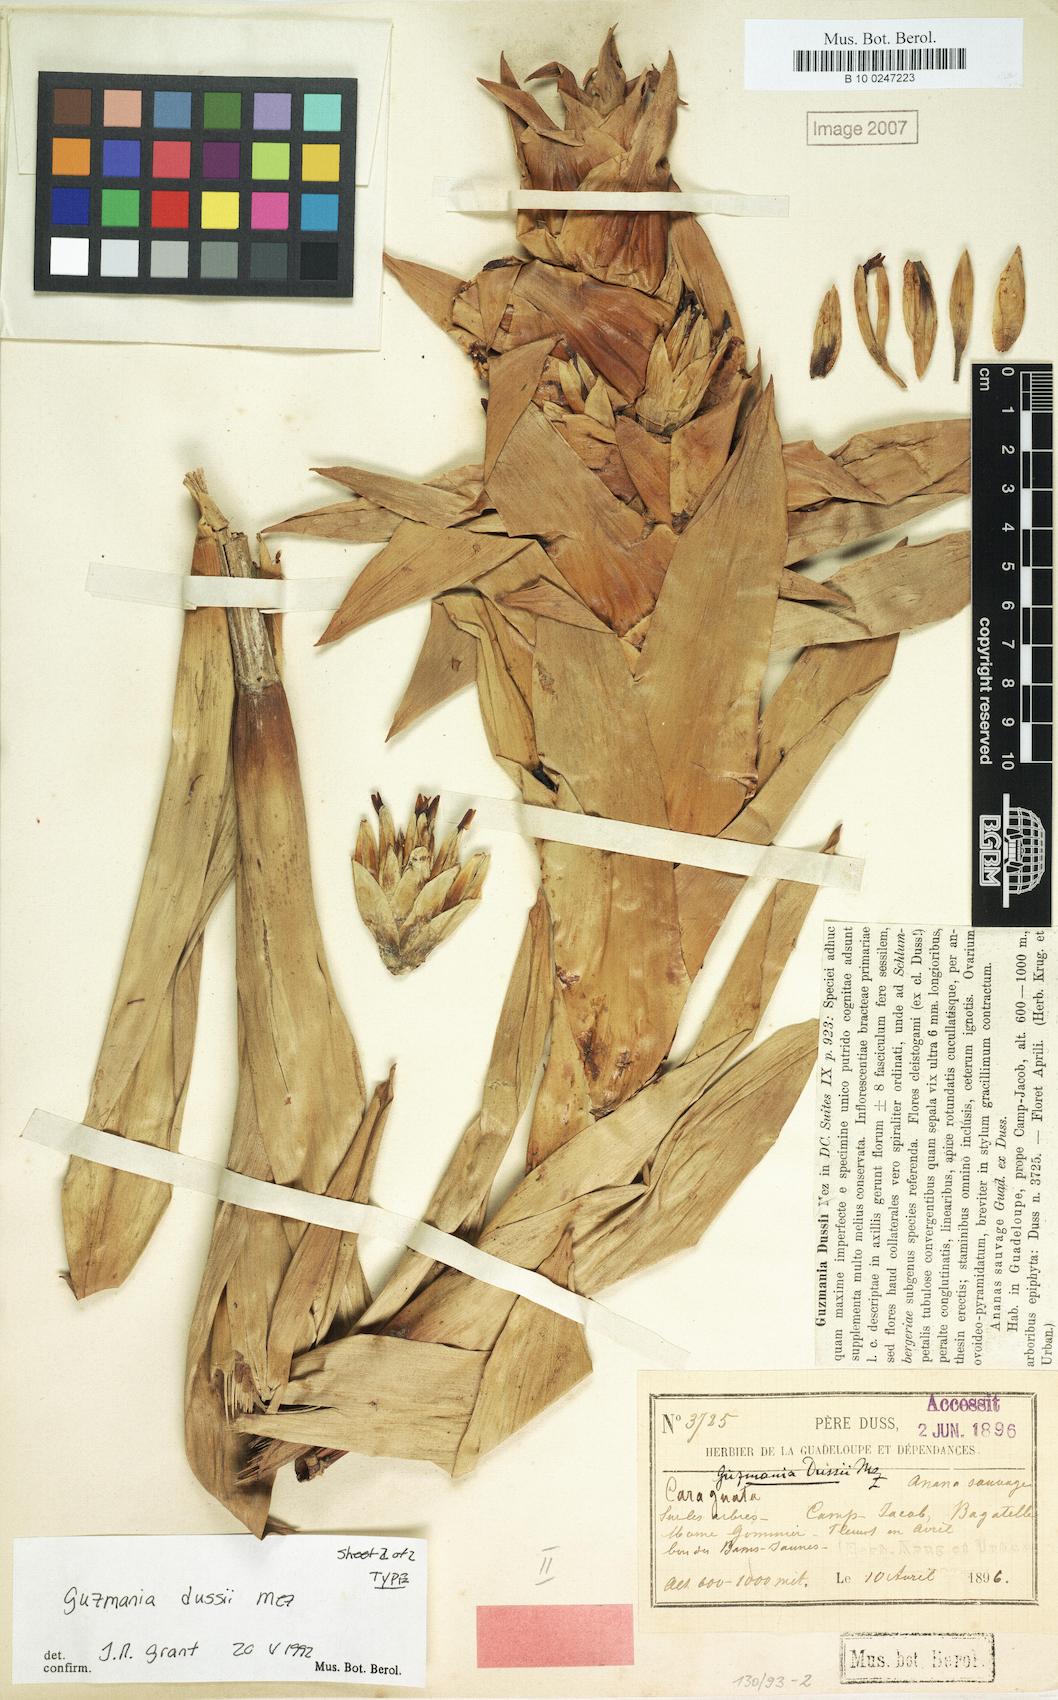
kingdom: Plantae
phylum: Tracheophyta
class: Liliopsida
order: Poales
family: Bromeliaceae
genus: Guzmania
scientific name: Guzmania
